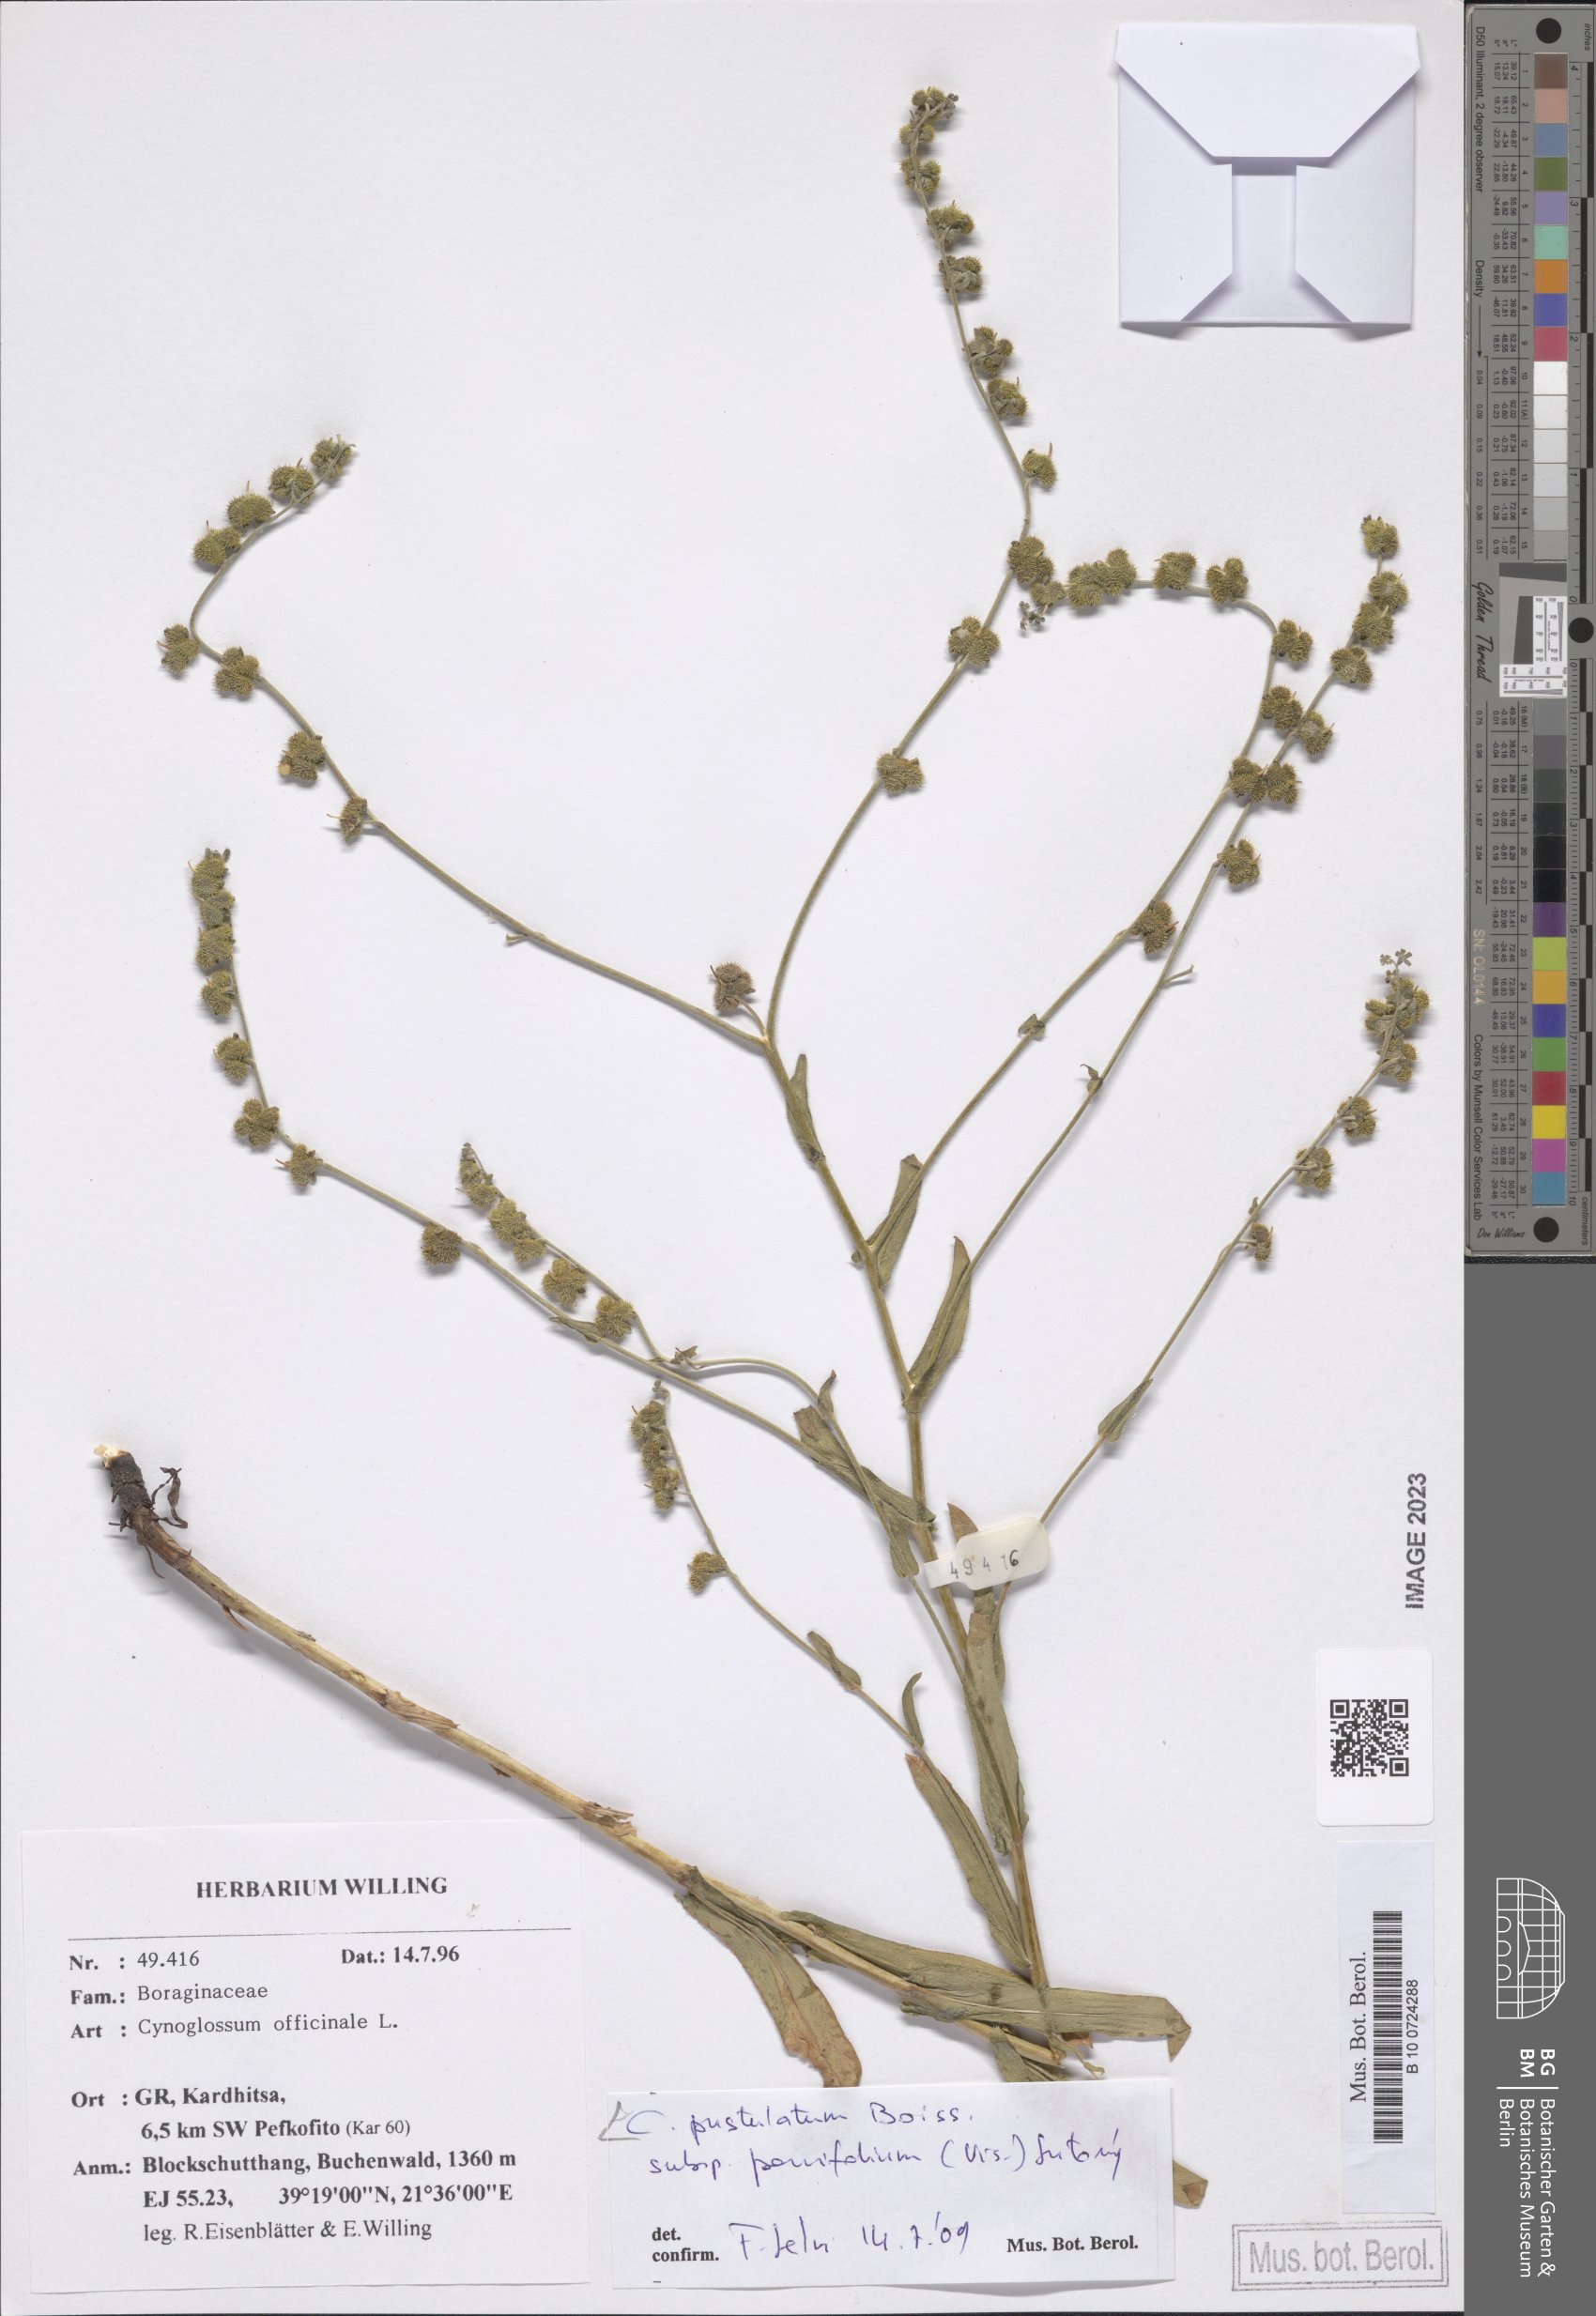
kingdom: Plantae
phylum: Tracheophyta
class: Magnoliopsida
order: Boraginales
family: Boraginaceae
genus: Cynoglossum
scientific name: Cynoglossum pustulatum
